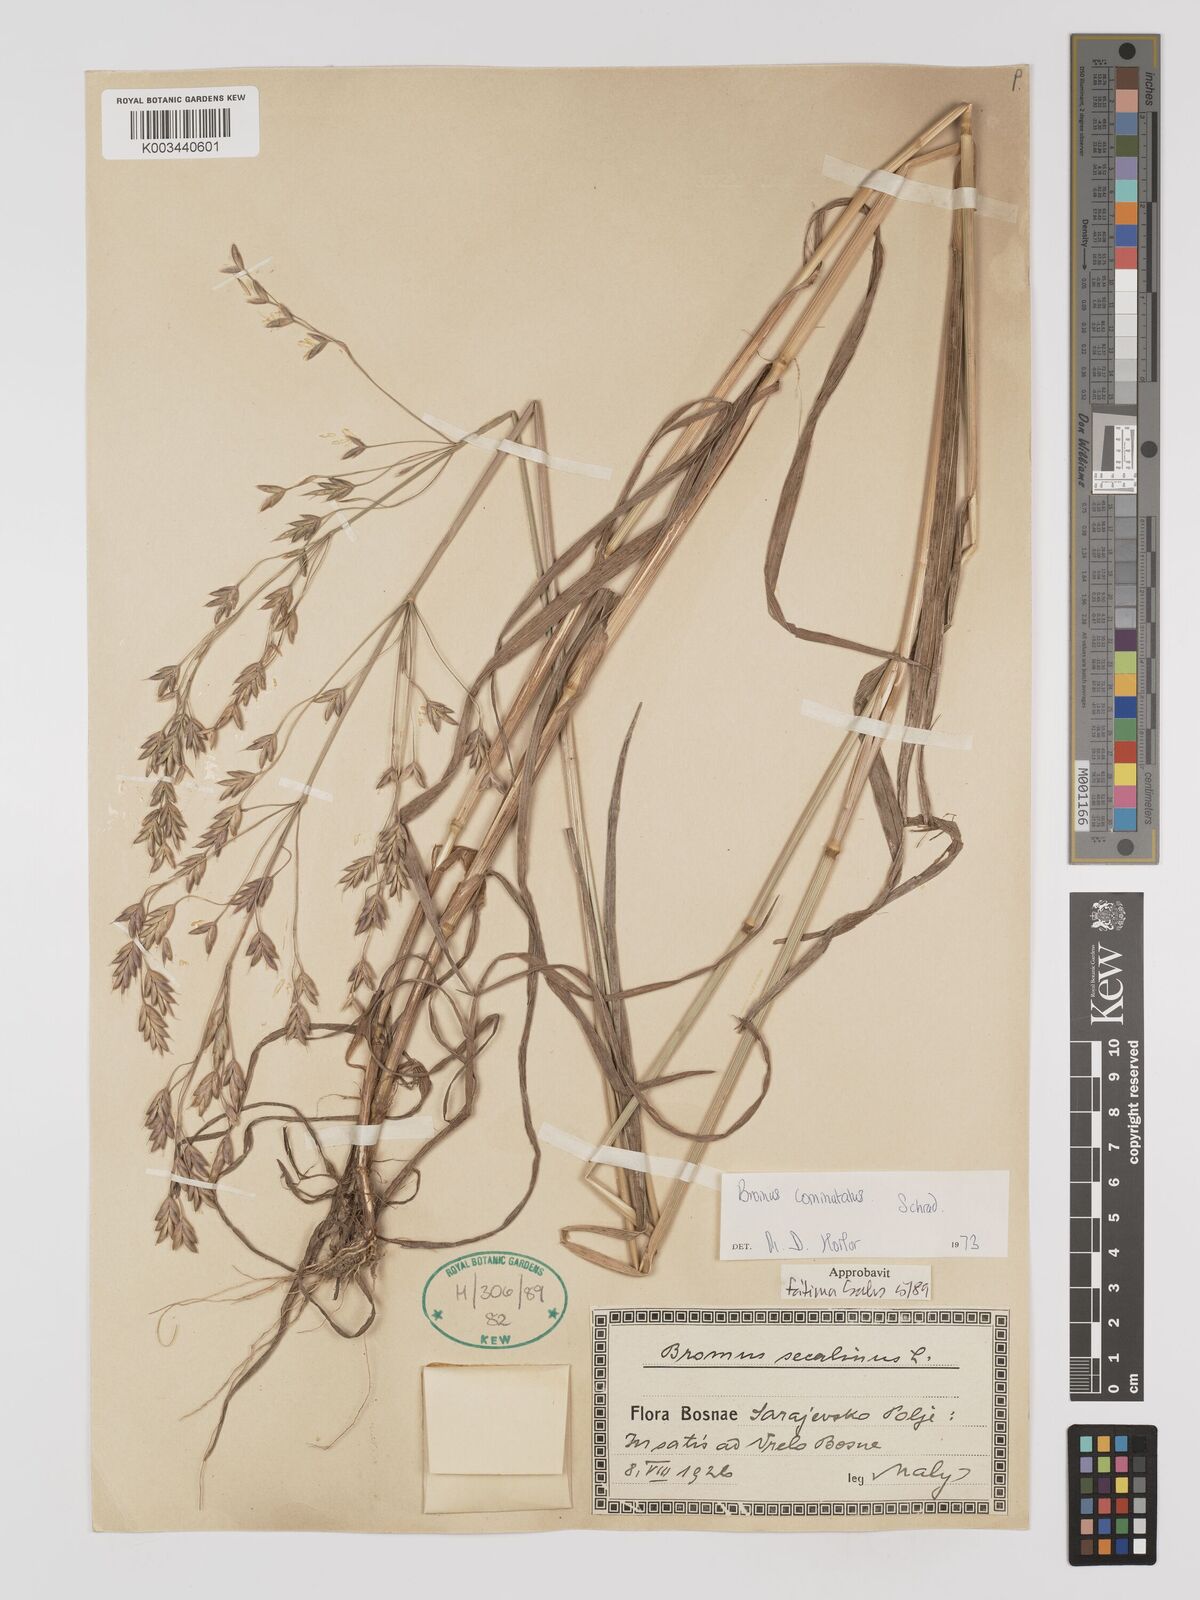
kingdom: Plantae
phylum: Tracheophyta
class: Liliopsida
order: Poales
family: Poaceae
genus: Bromus
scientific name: Bromus racemosus
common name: Bald brome
